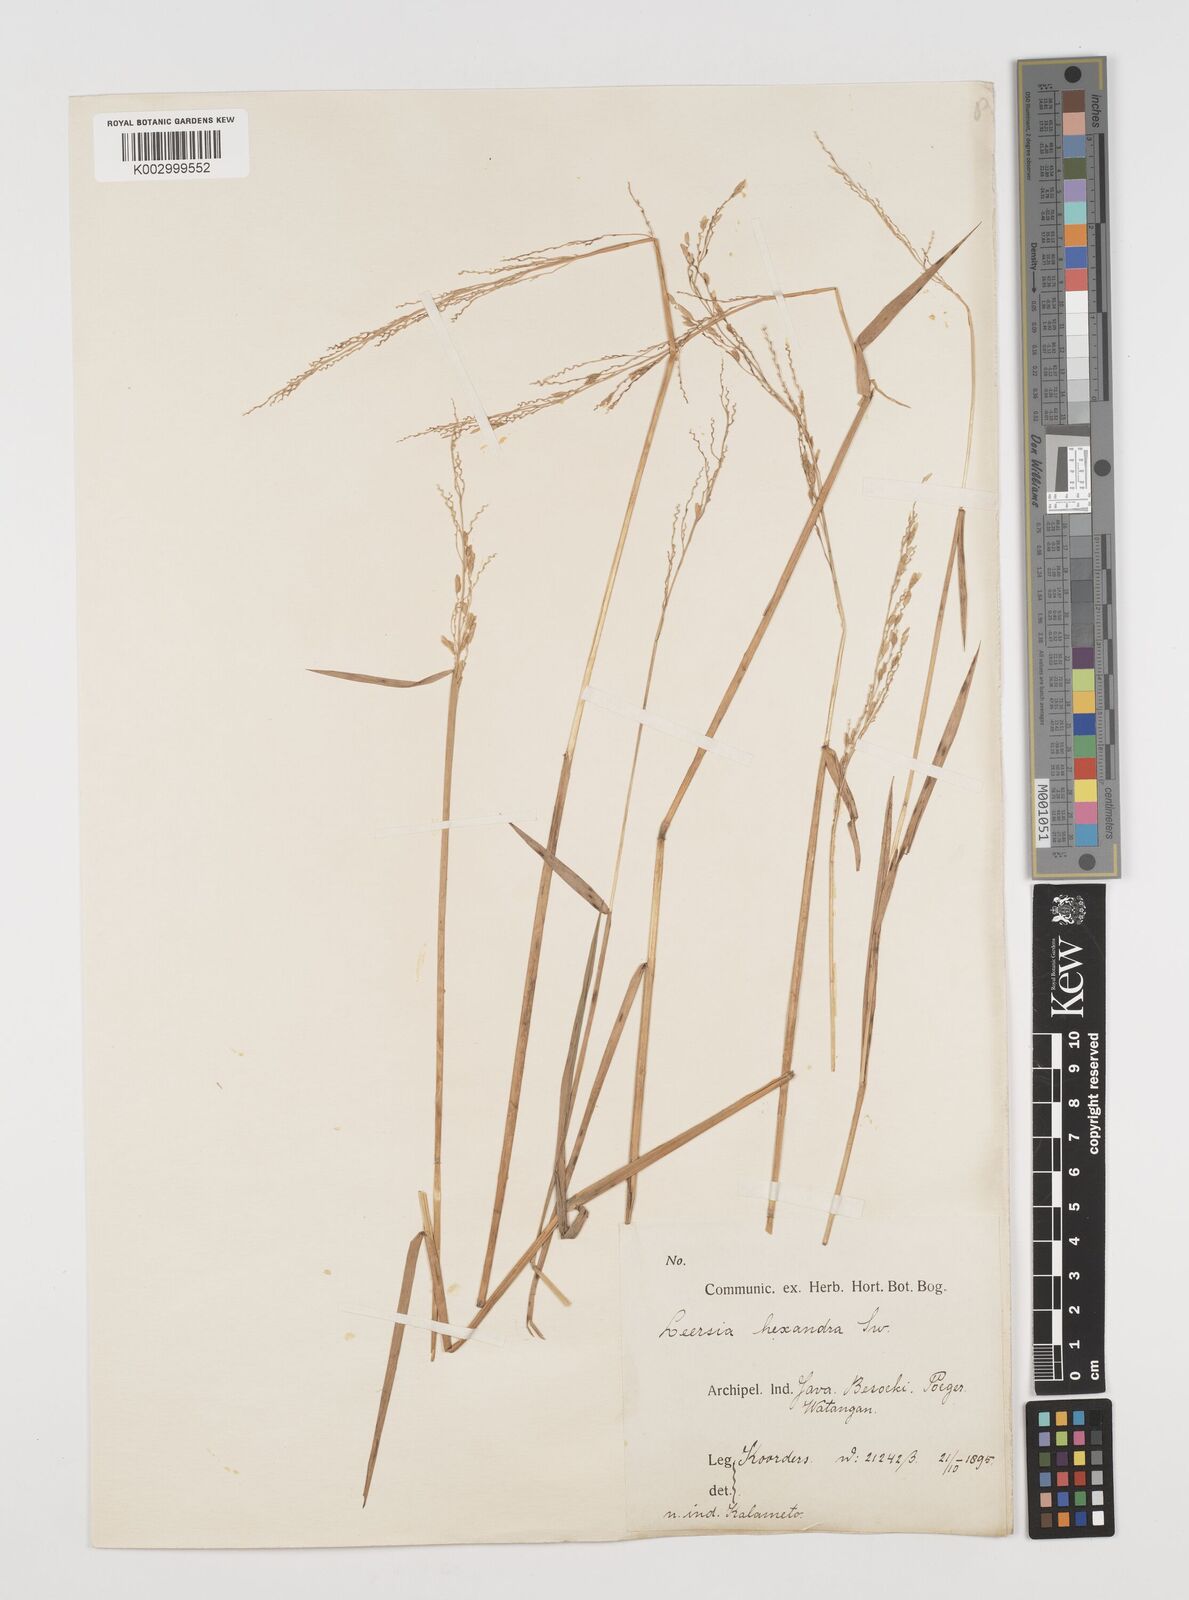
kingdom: Plantae
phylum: Tracheophyta
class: Liliopsida
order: Poales
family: Poaceae
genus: Leersia
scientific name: Leersia hexandra
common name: Southern cut grass
